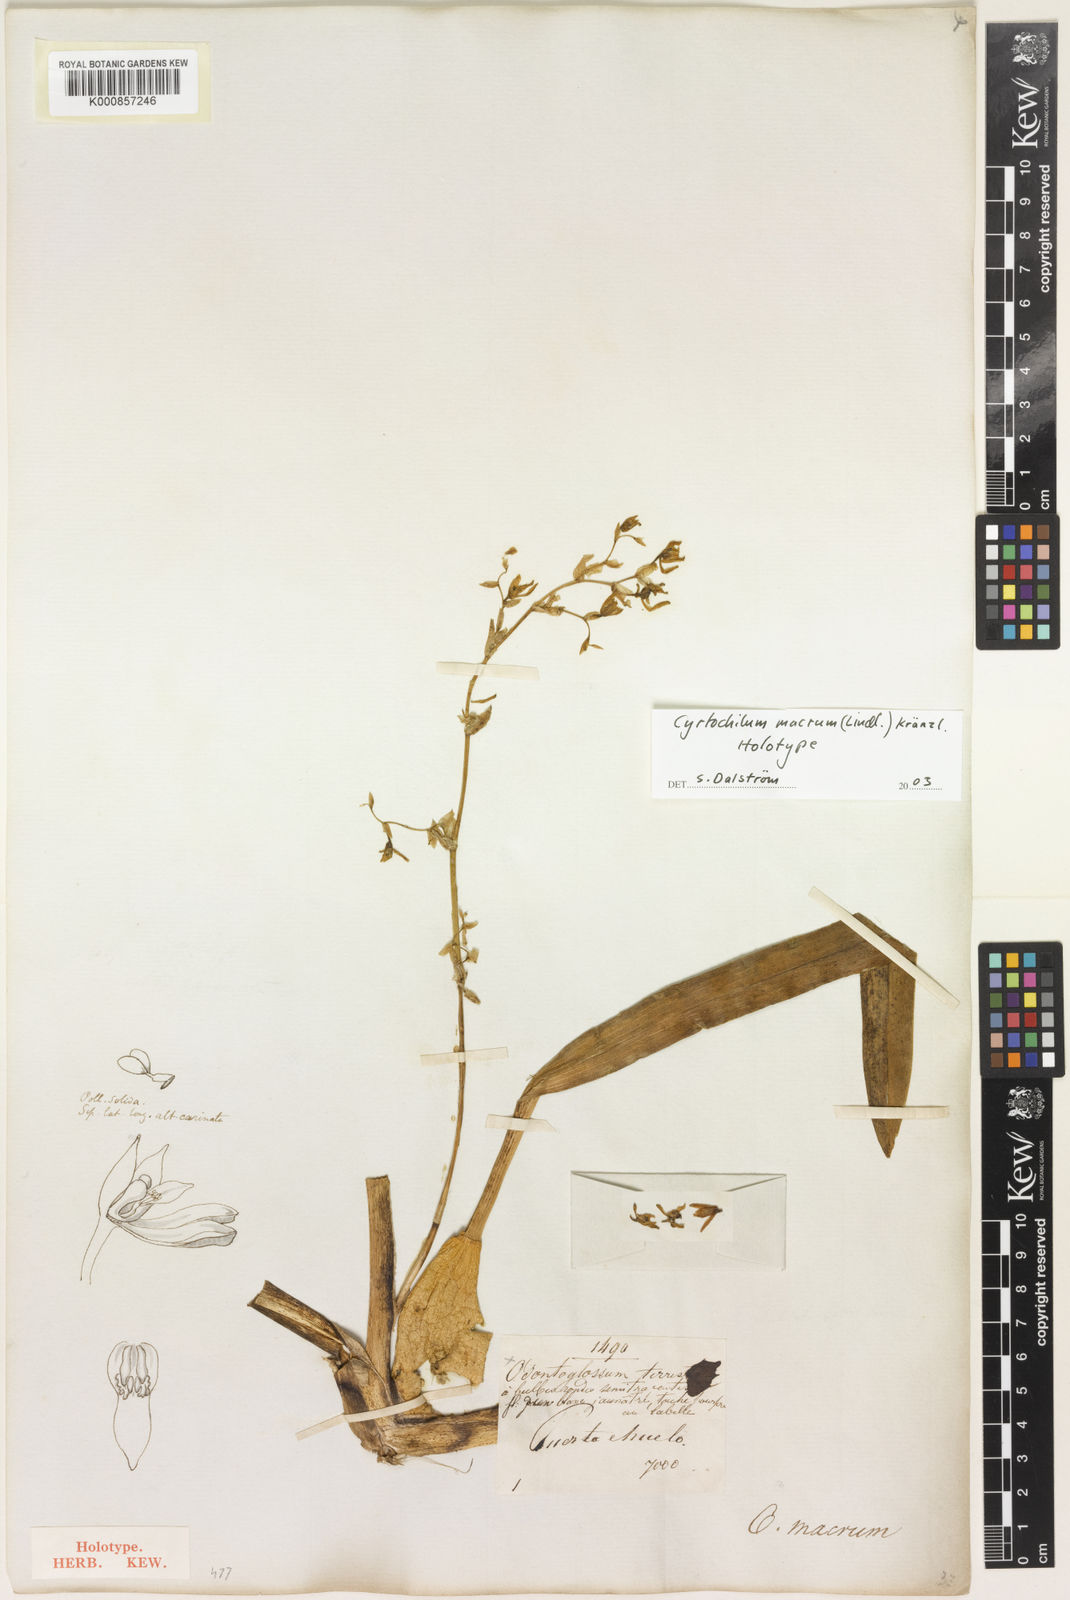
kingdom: Plantae
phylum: Tracheophyta
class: Liliopsida
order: Asparagales
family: Orchidaceae
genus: Cyrtochilum
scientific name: Cyrtochilum densiflorum
